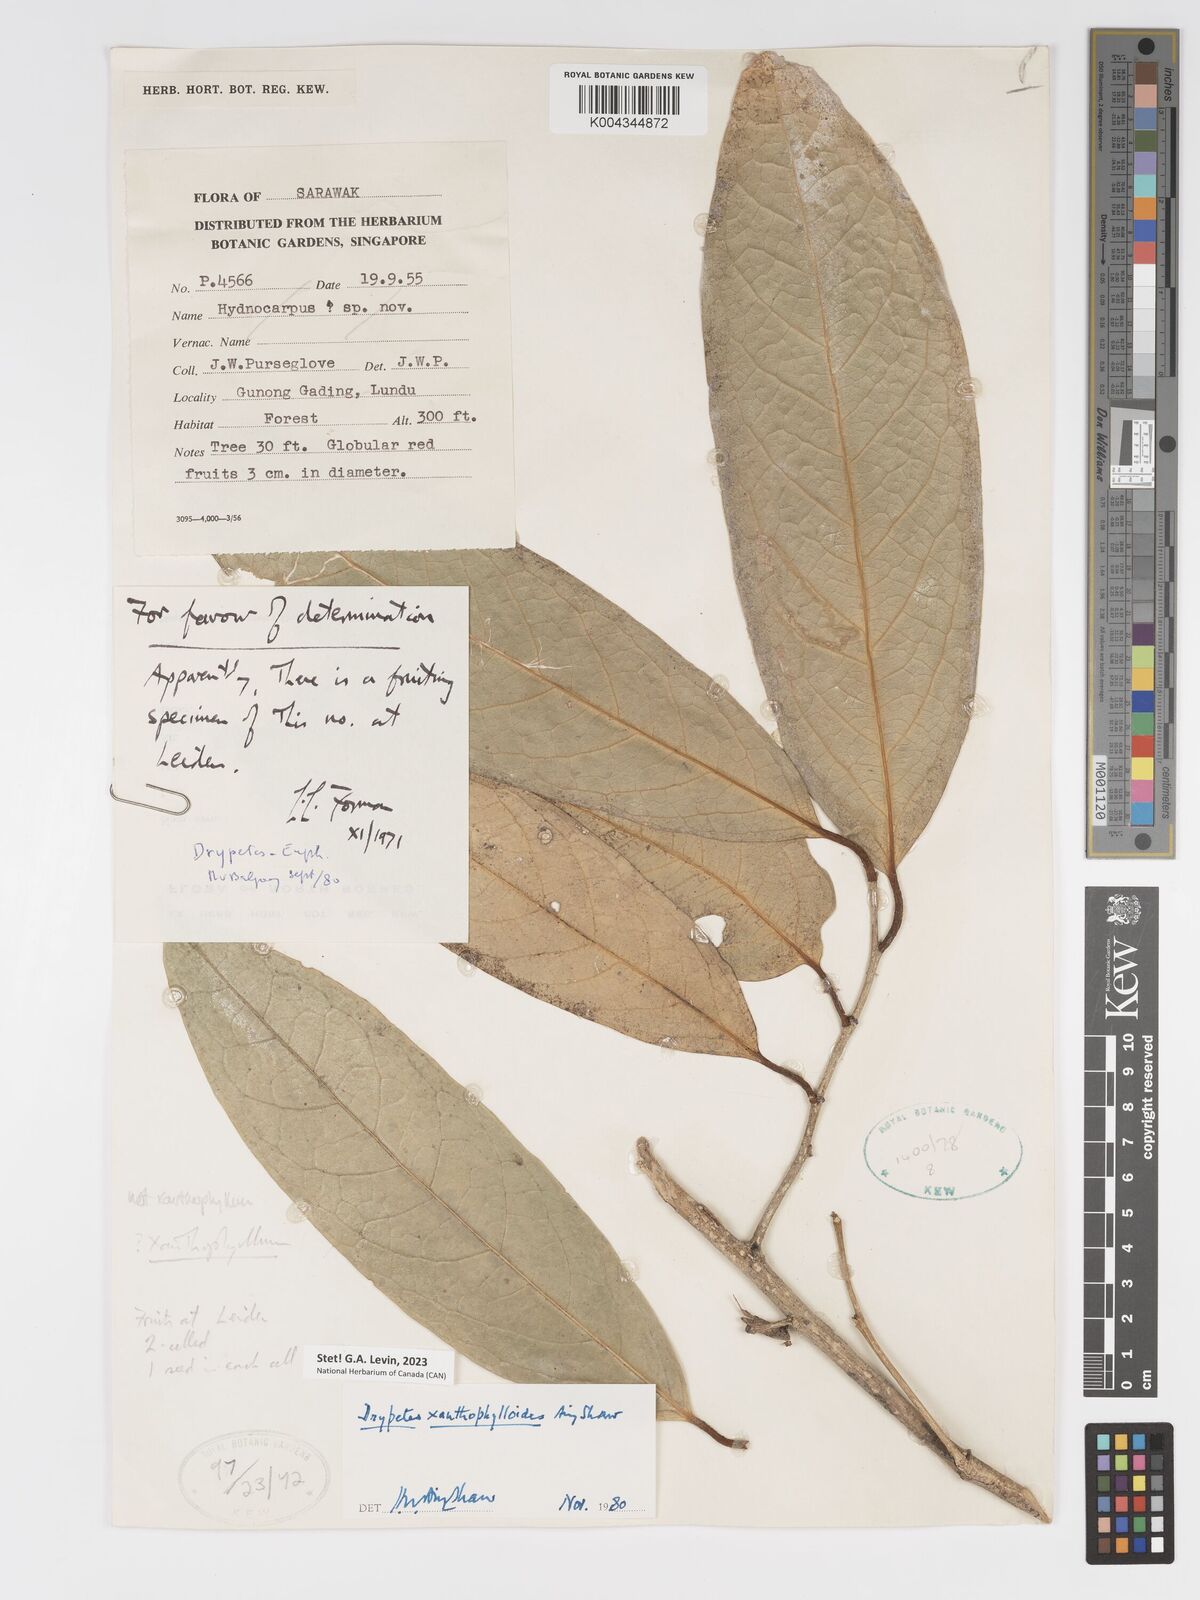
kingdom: Plantae
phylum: Tracheophyta
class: Magnoliopsida
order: Malpighiales
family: Putranjivaceae
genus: Drypetes
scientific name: Drypetes xanthophylloides
